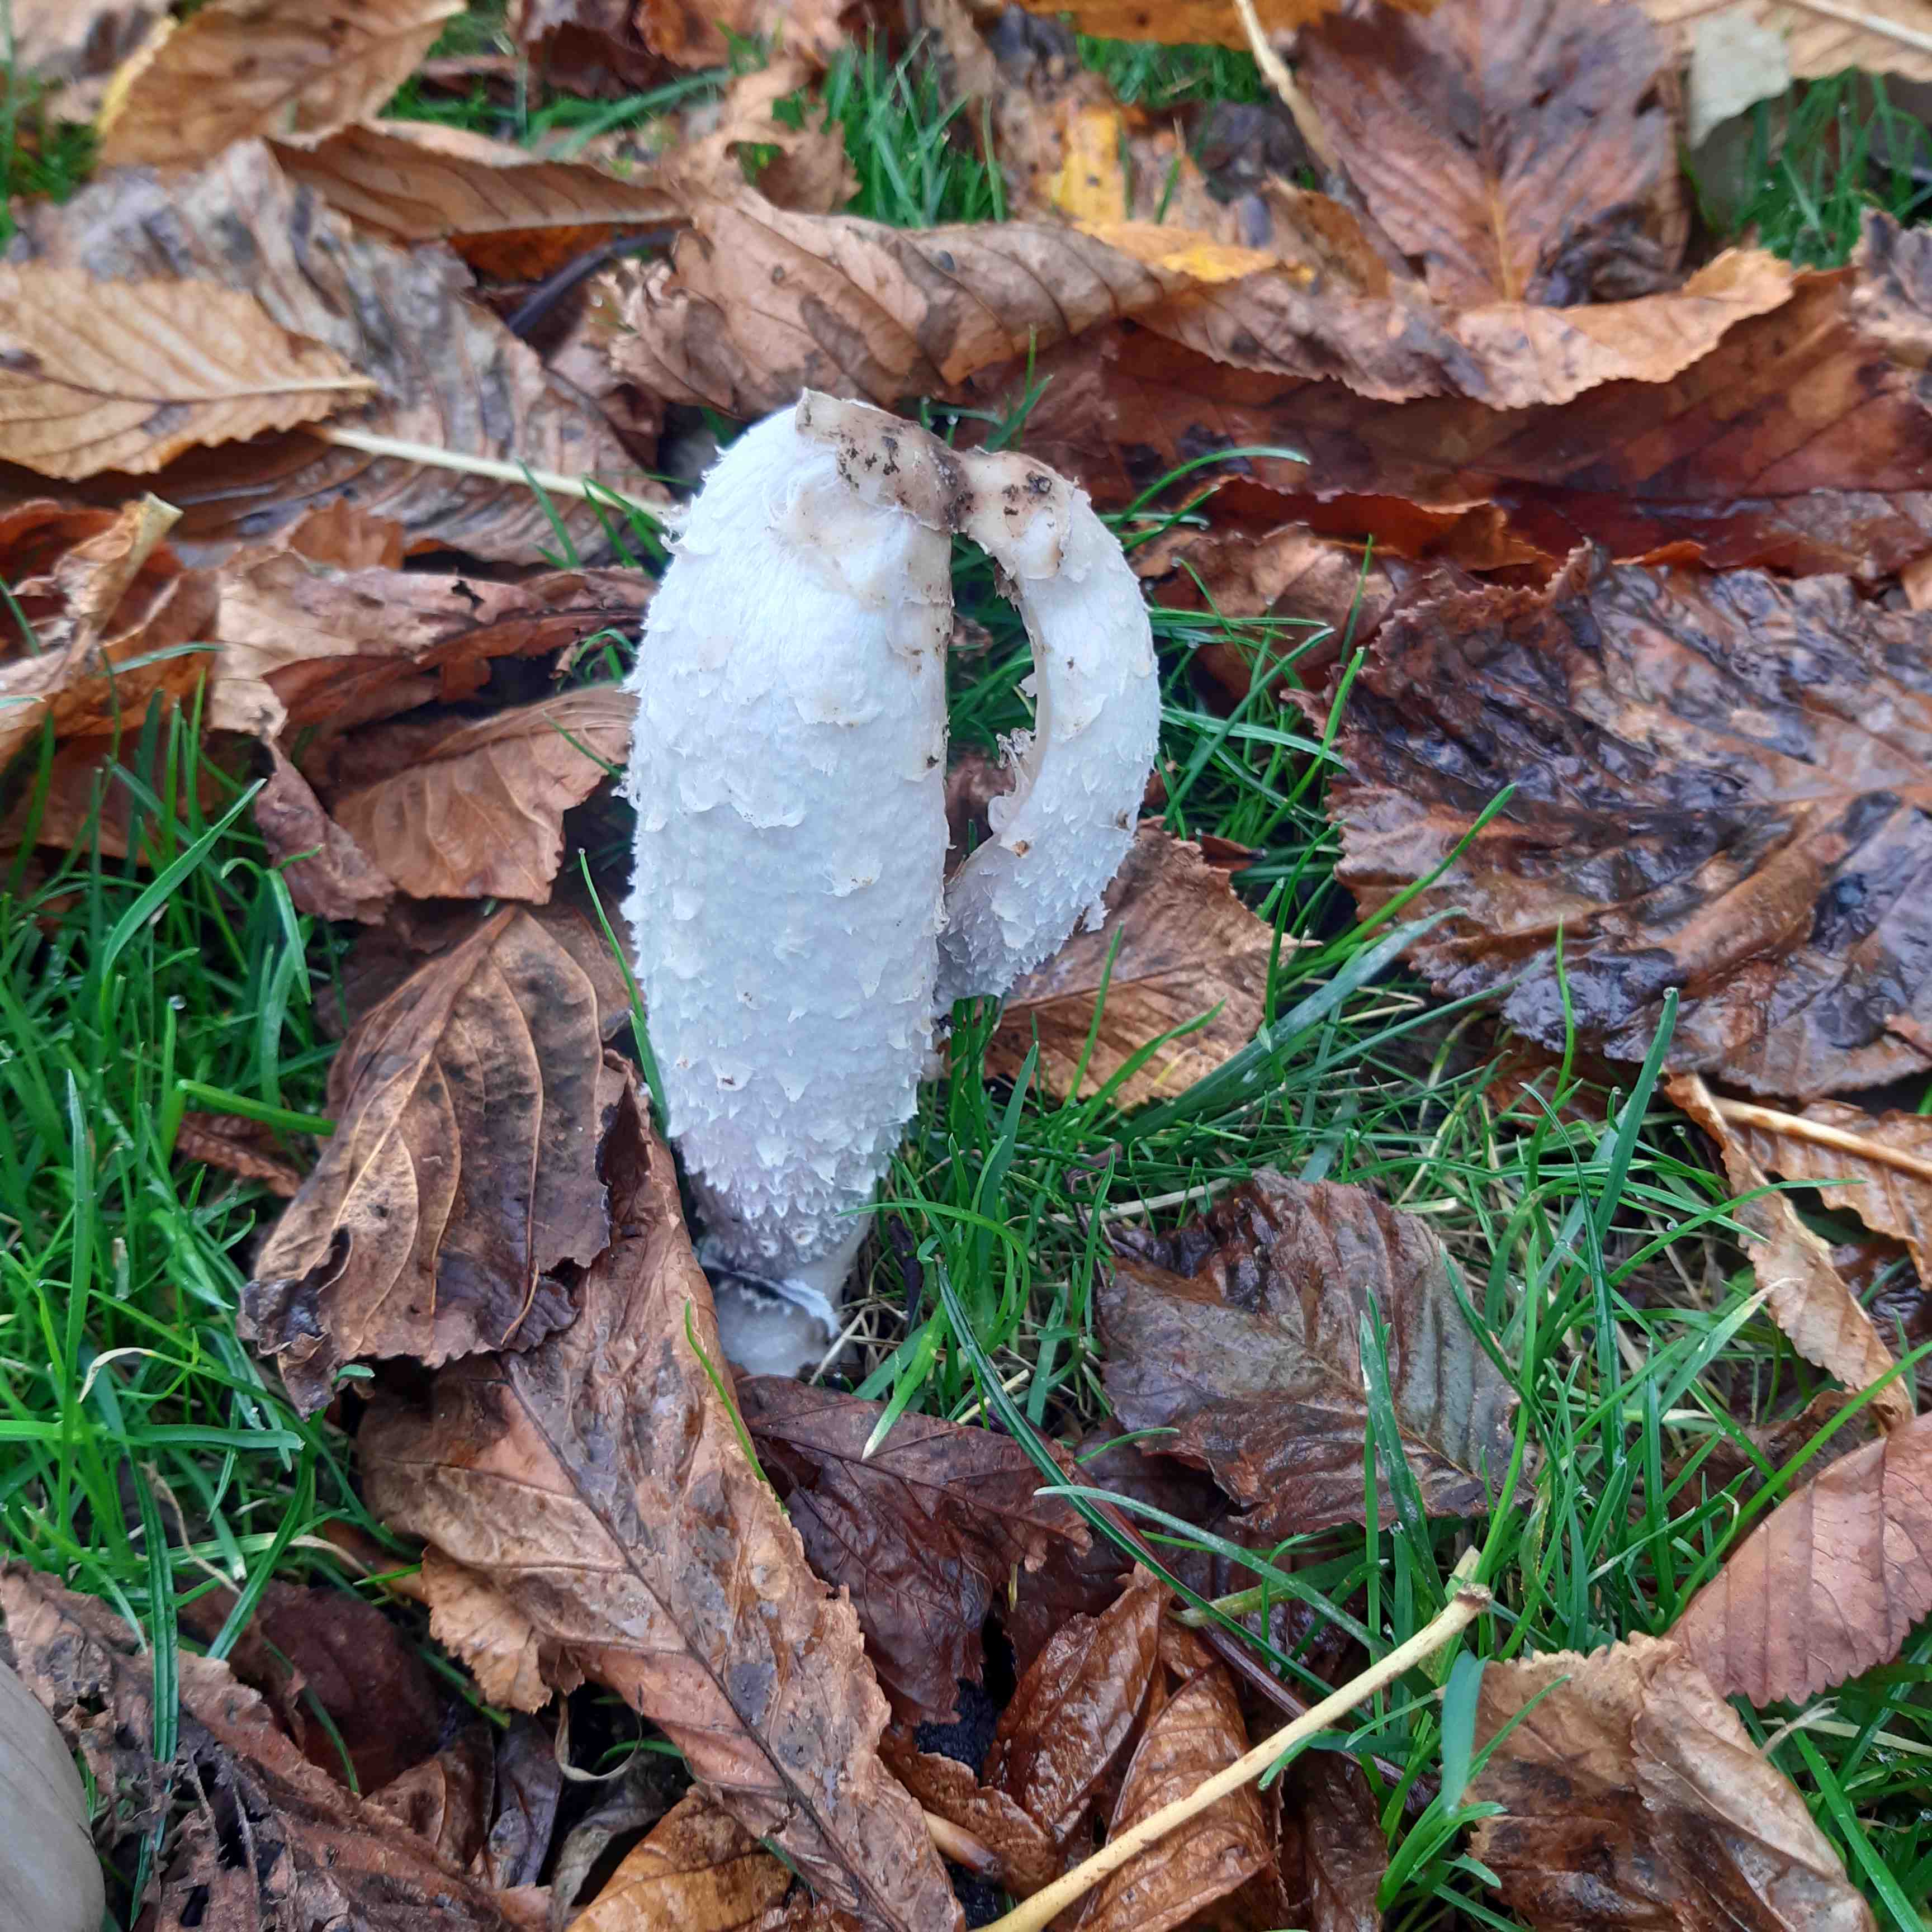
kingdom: Fungi
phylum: Basidiomycota
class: Agaricomycetes
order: Agaricales
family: Agaricaceae
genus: Coprinus
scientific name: Coprinus comatus
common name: stor parykhat
